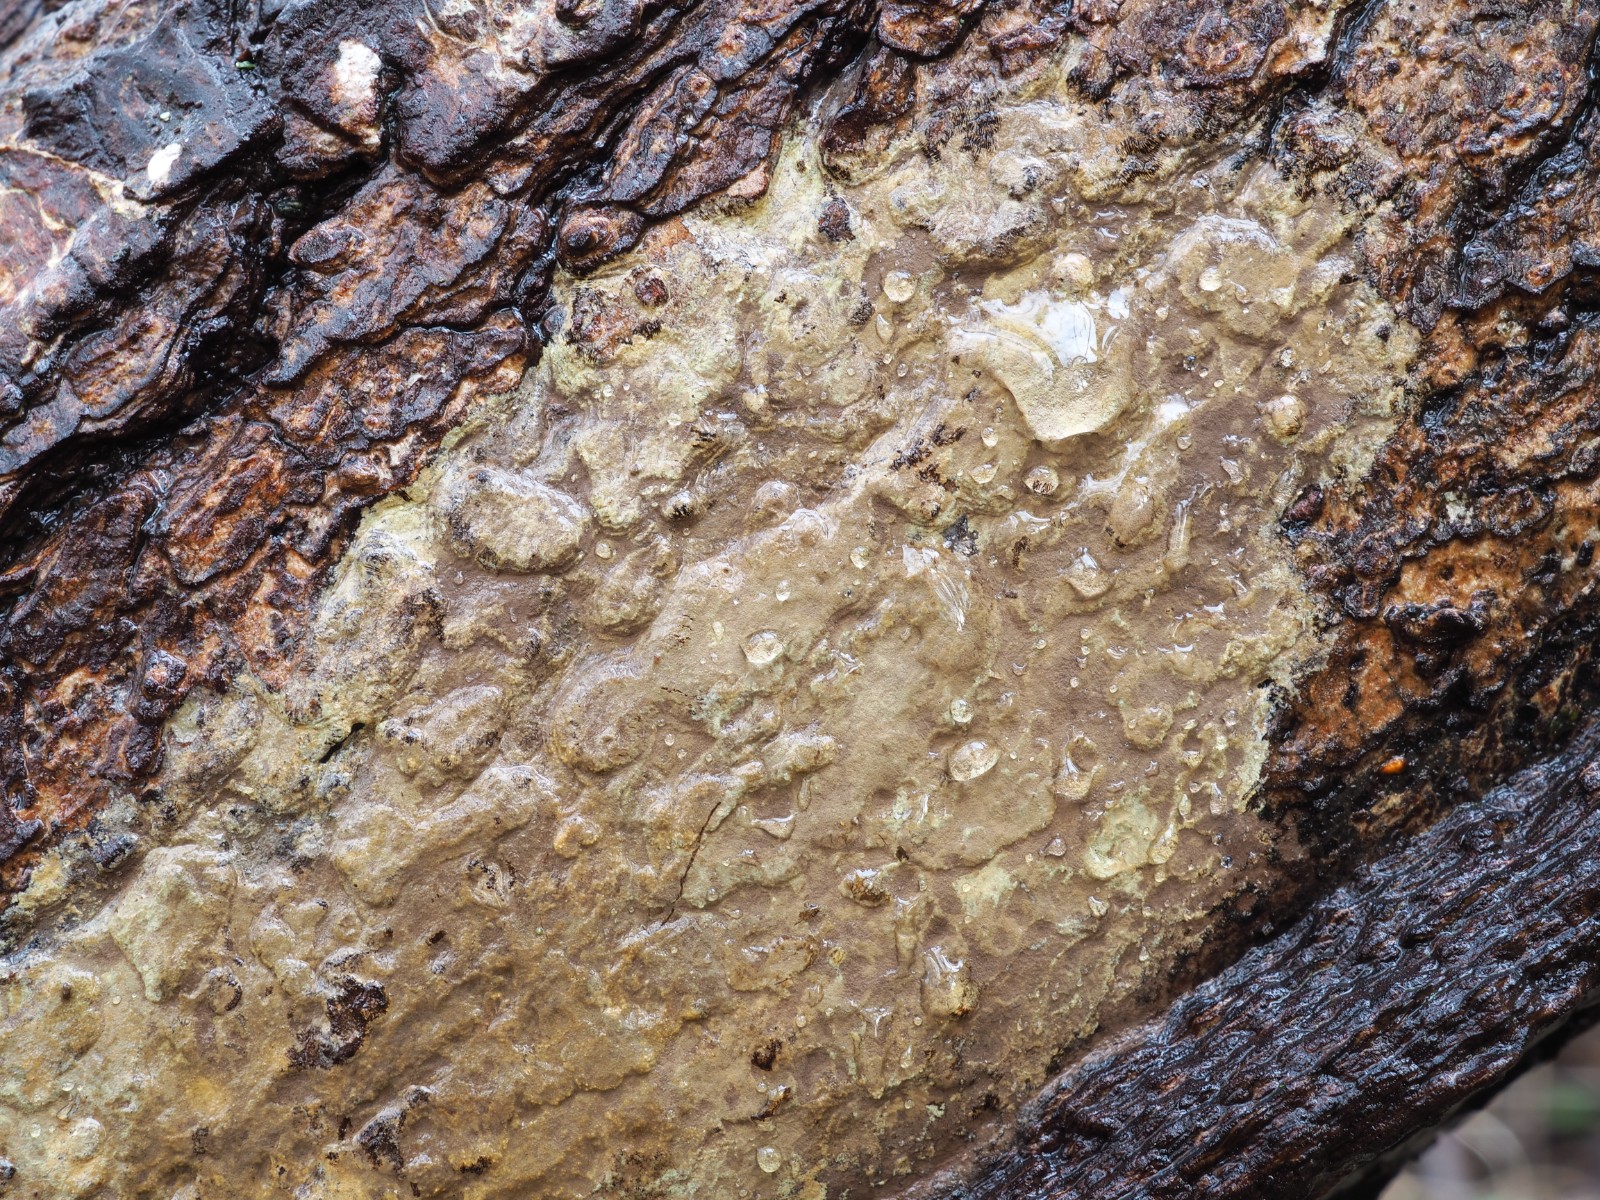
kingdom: Fungi
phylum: Basidiomycota
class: Agaricomycetes
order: Corticiales
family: Corticiaceae
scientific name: Corticiaceae
